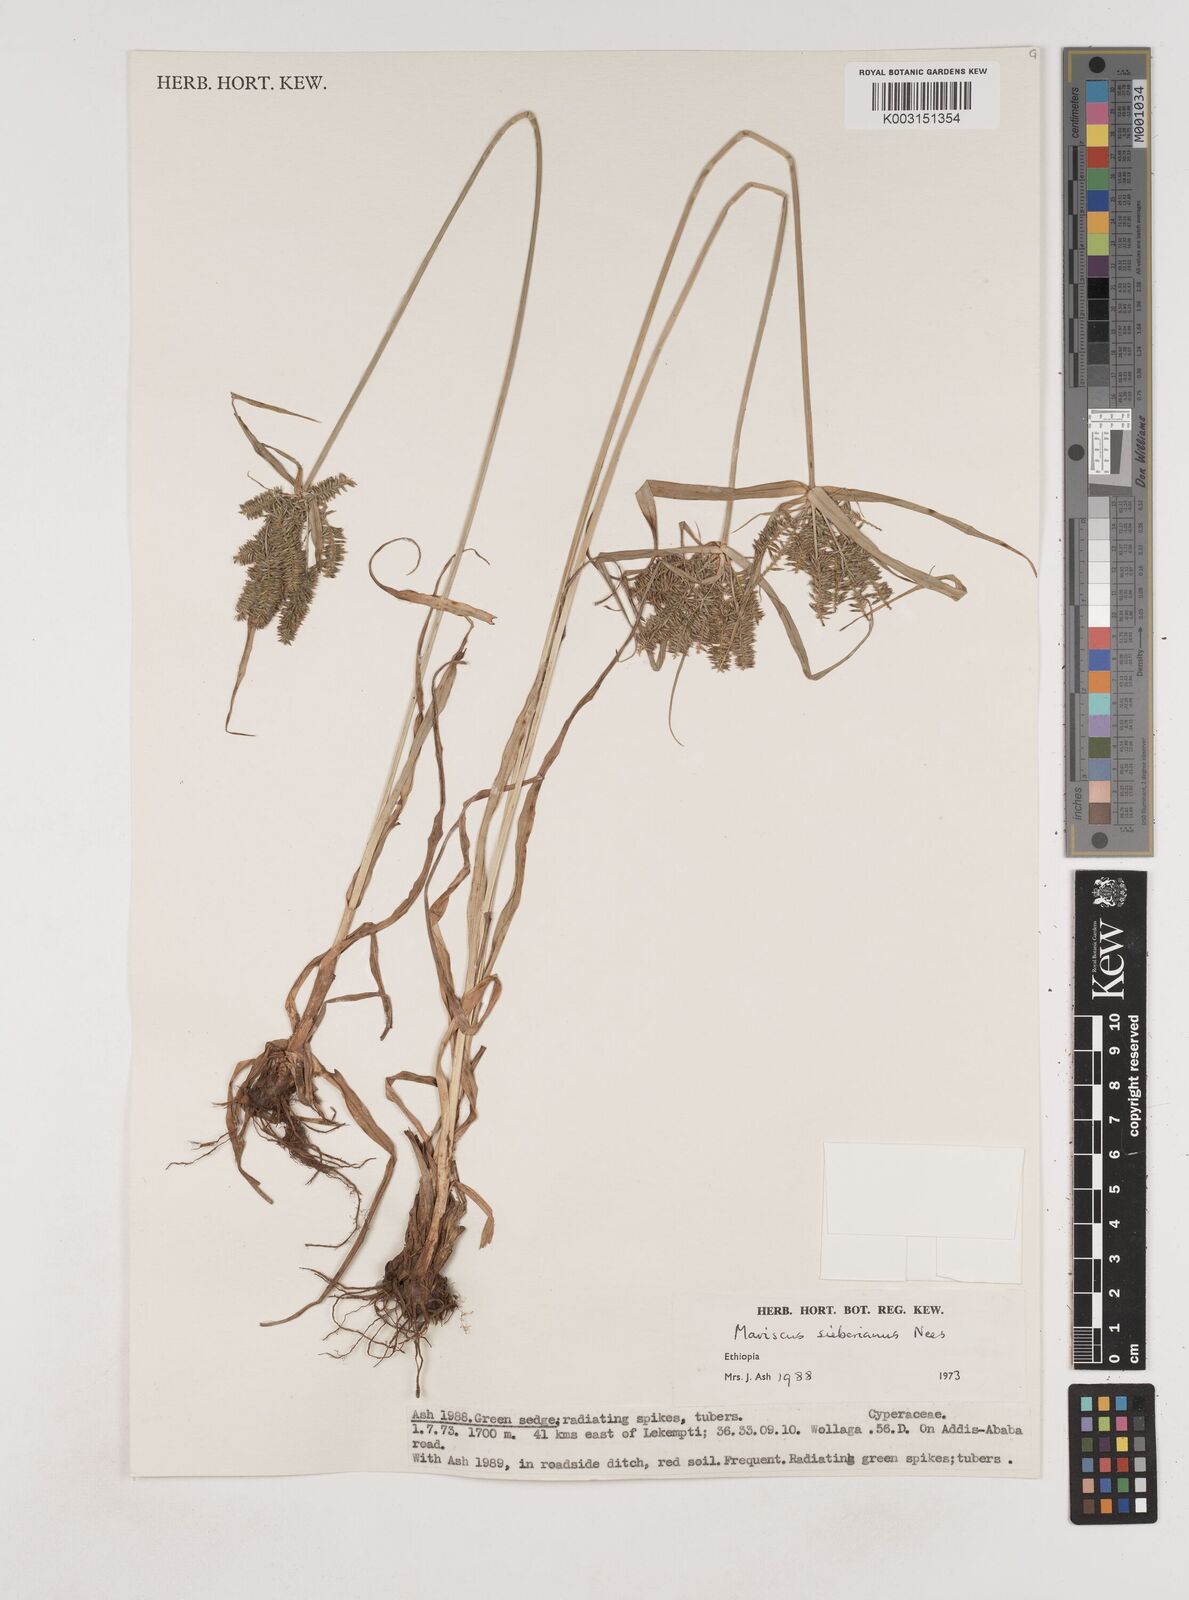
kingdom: Plantae
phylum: Tracheophyta
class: Liliopsida
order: Poales
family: Cyperaceae
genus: Cyperus
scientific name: Cyperus cyperoides
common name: Pacific island flat sedge
